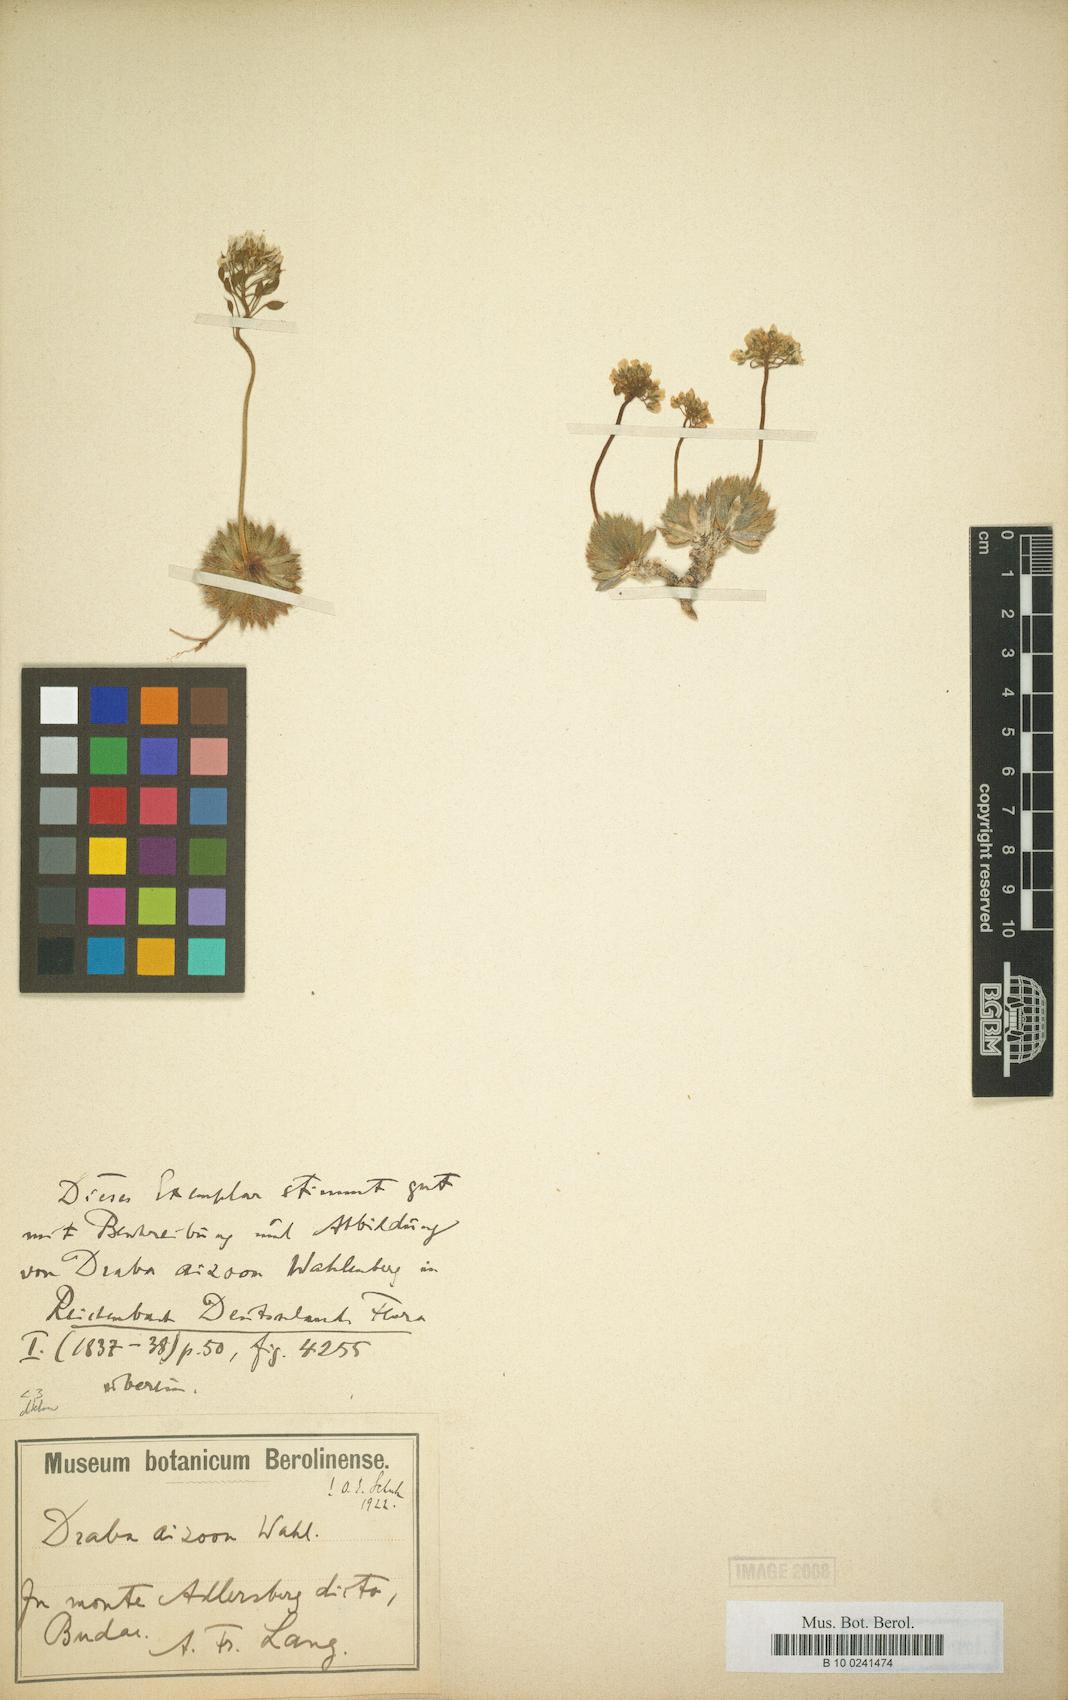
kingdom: Plantae
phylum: Tracheophyta
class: Magnoliopsida
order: Brassicales
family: Brassicaceae
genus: Draba
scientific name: Draba lasiocarpa
